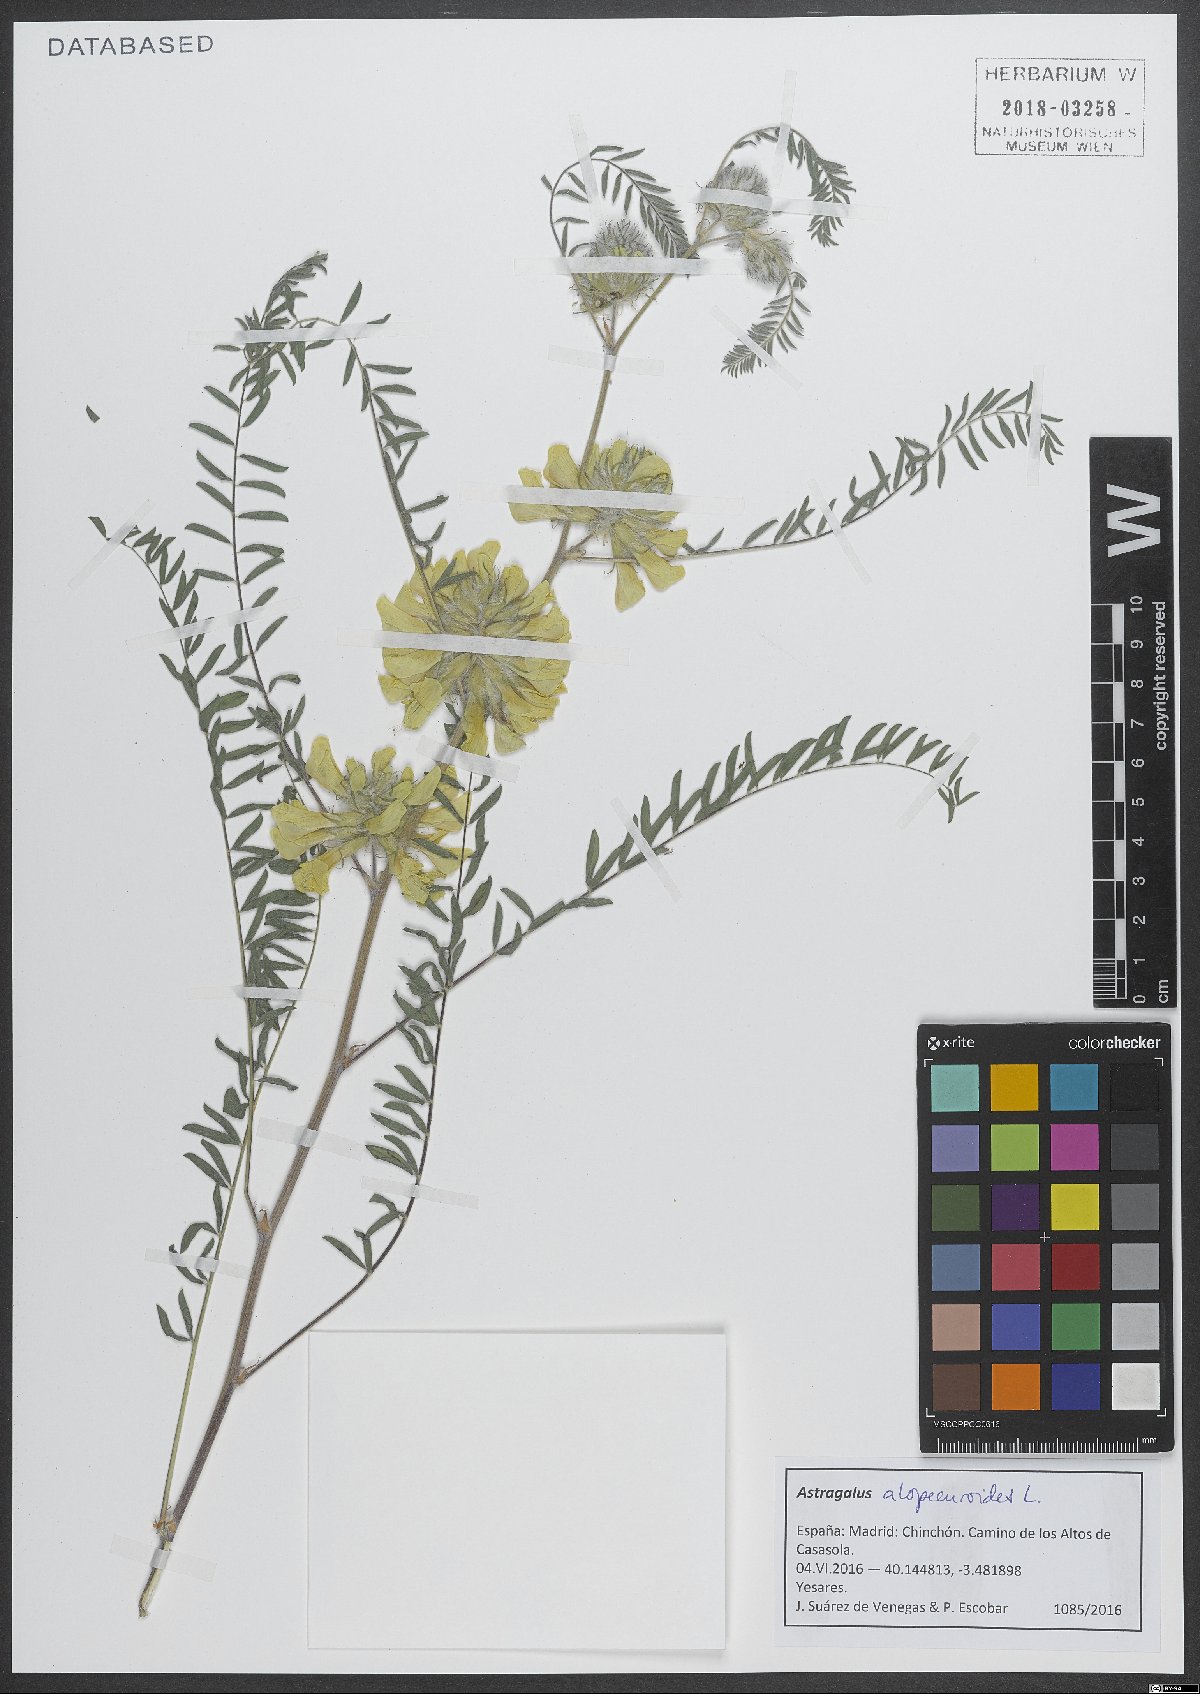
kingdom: Plantae
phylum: Tracheophyta
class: Magnoliopsida
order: Fabales
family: Fabaceae
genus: Astragalus
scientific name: Astragalus alopecuroides
